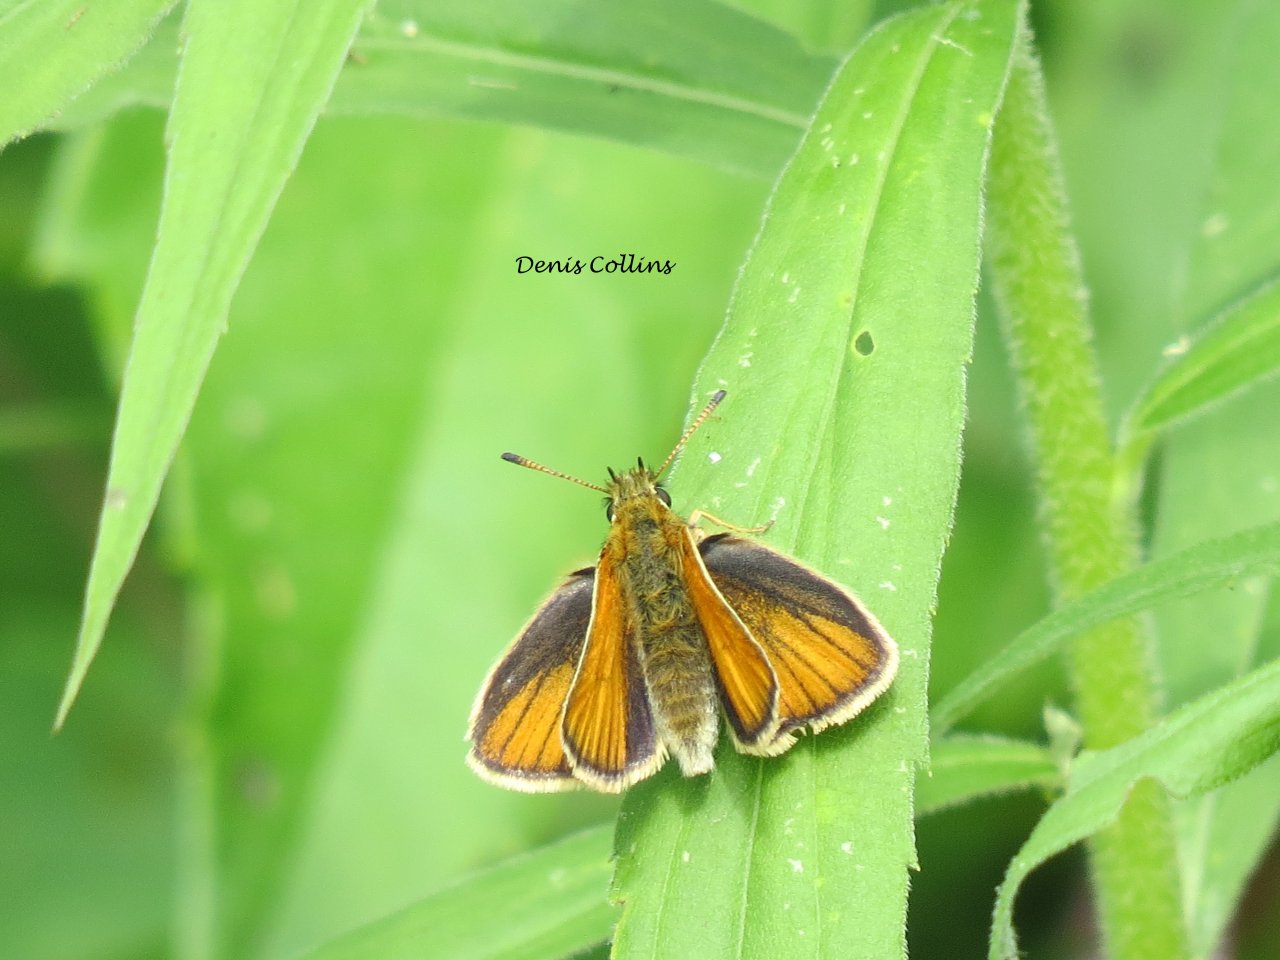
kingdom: Animalia
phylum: Arthropoda
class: Insecta
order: Lepidoptera
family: Hesperiidae
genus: Ancyloxypha
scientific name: Ancyloxypha numitor
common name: Least Skipper
